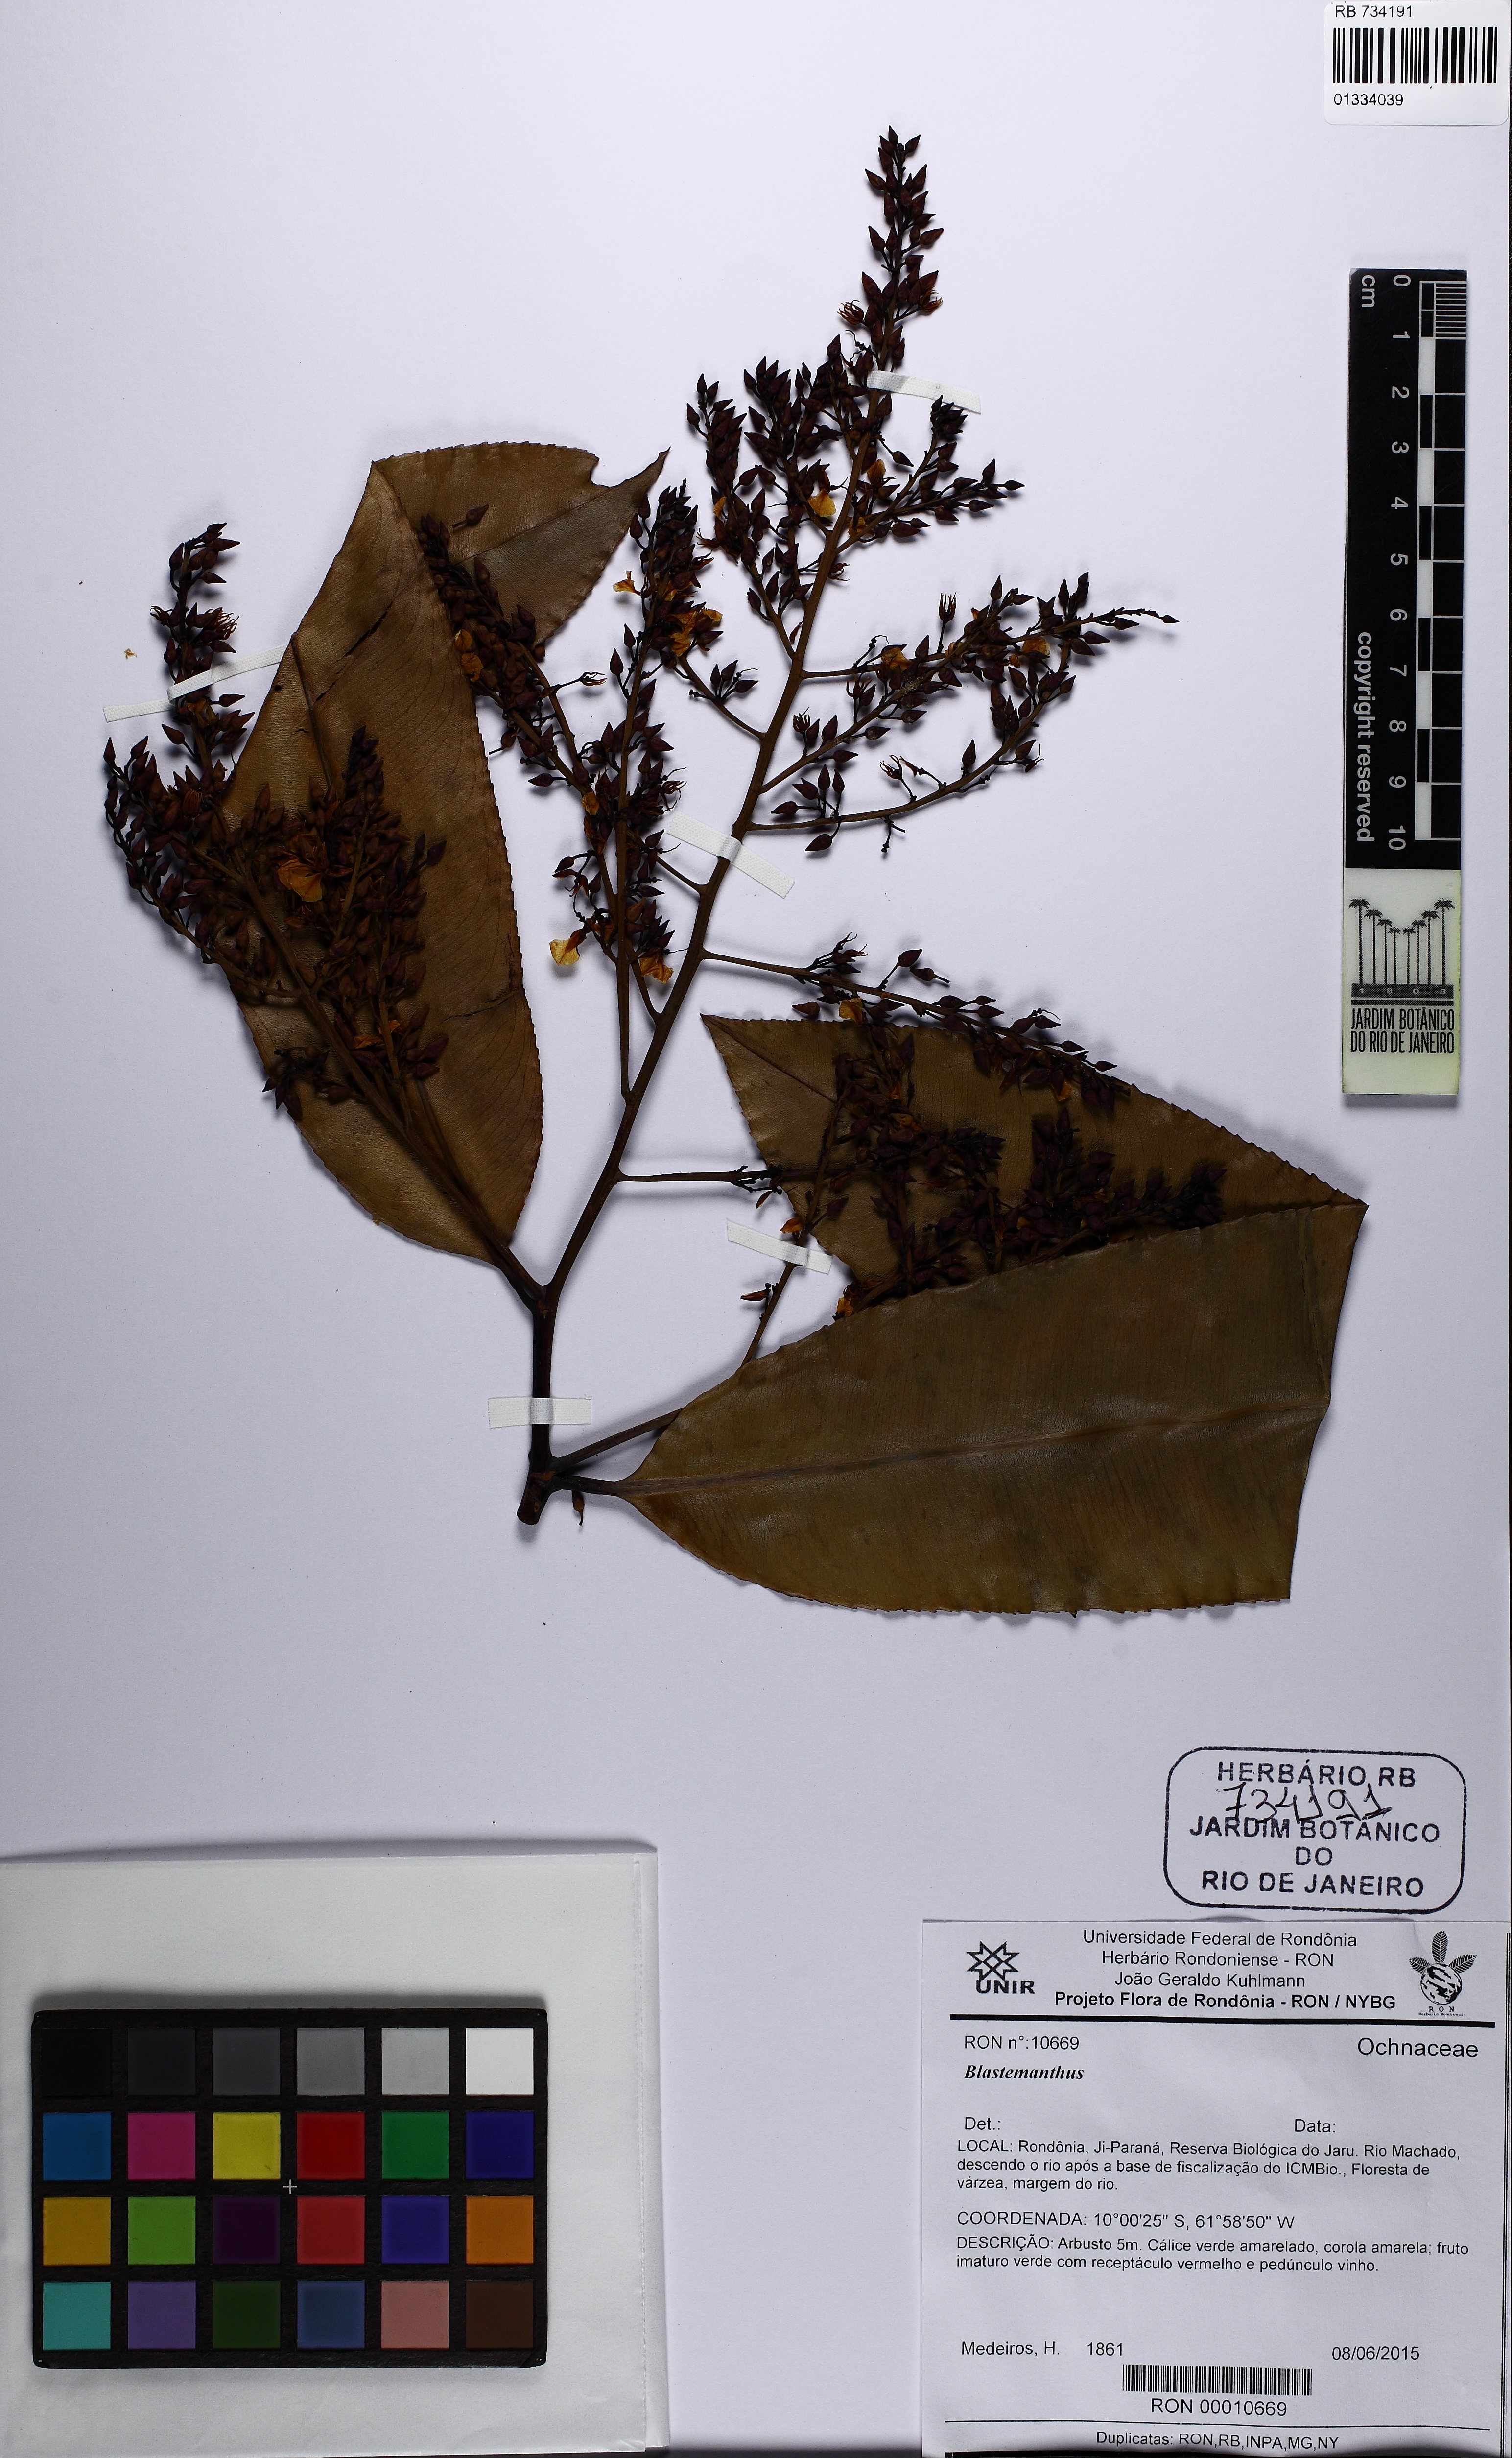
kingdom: Plantae
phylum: Tracheophyta
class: Magnoliopsida
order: Malpighiales
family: Ochnaceae
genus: Blastemanthus
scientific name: Blastemanthus
